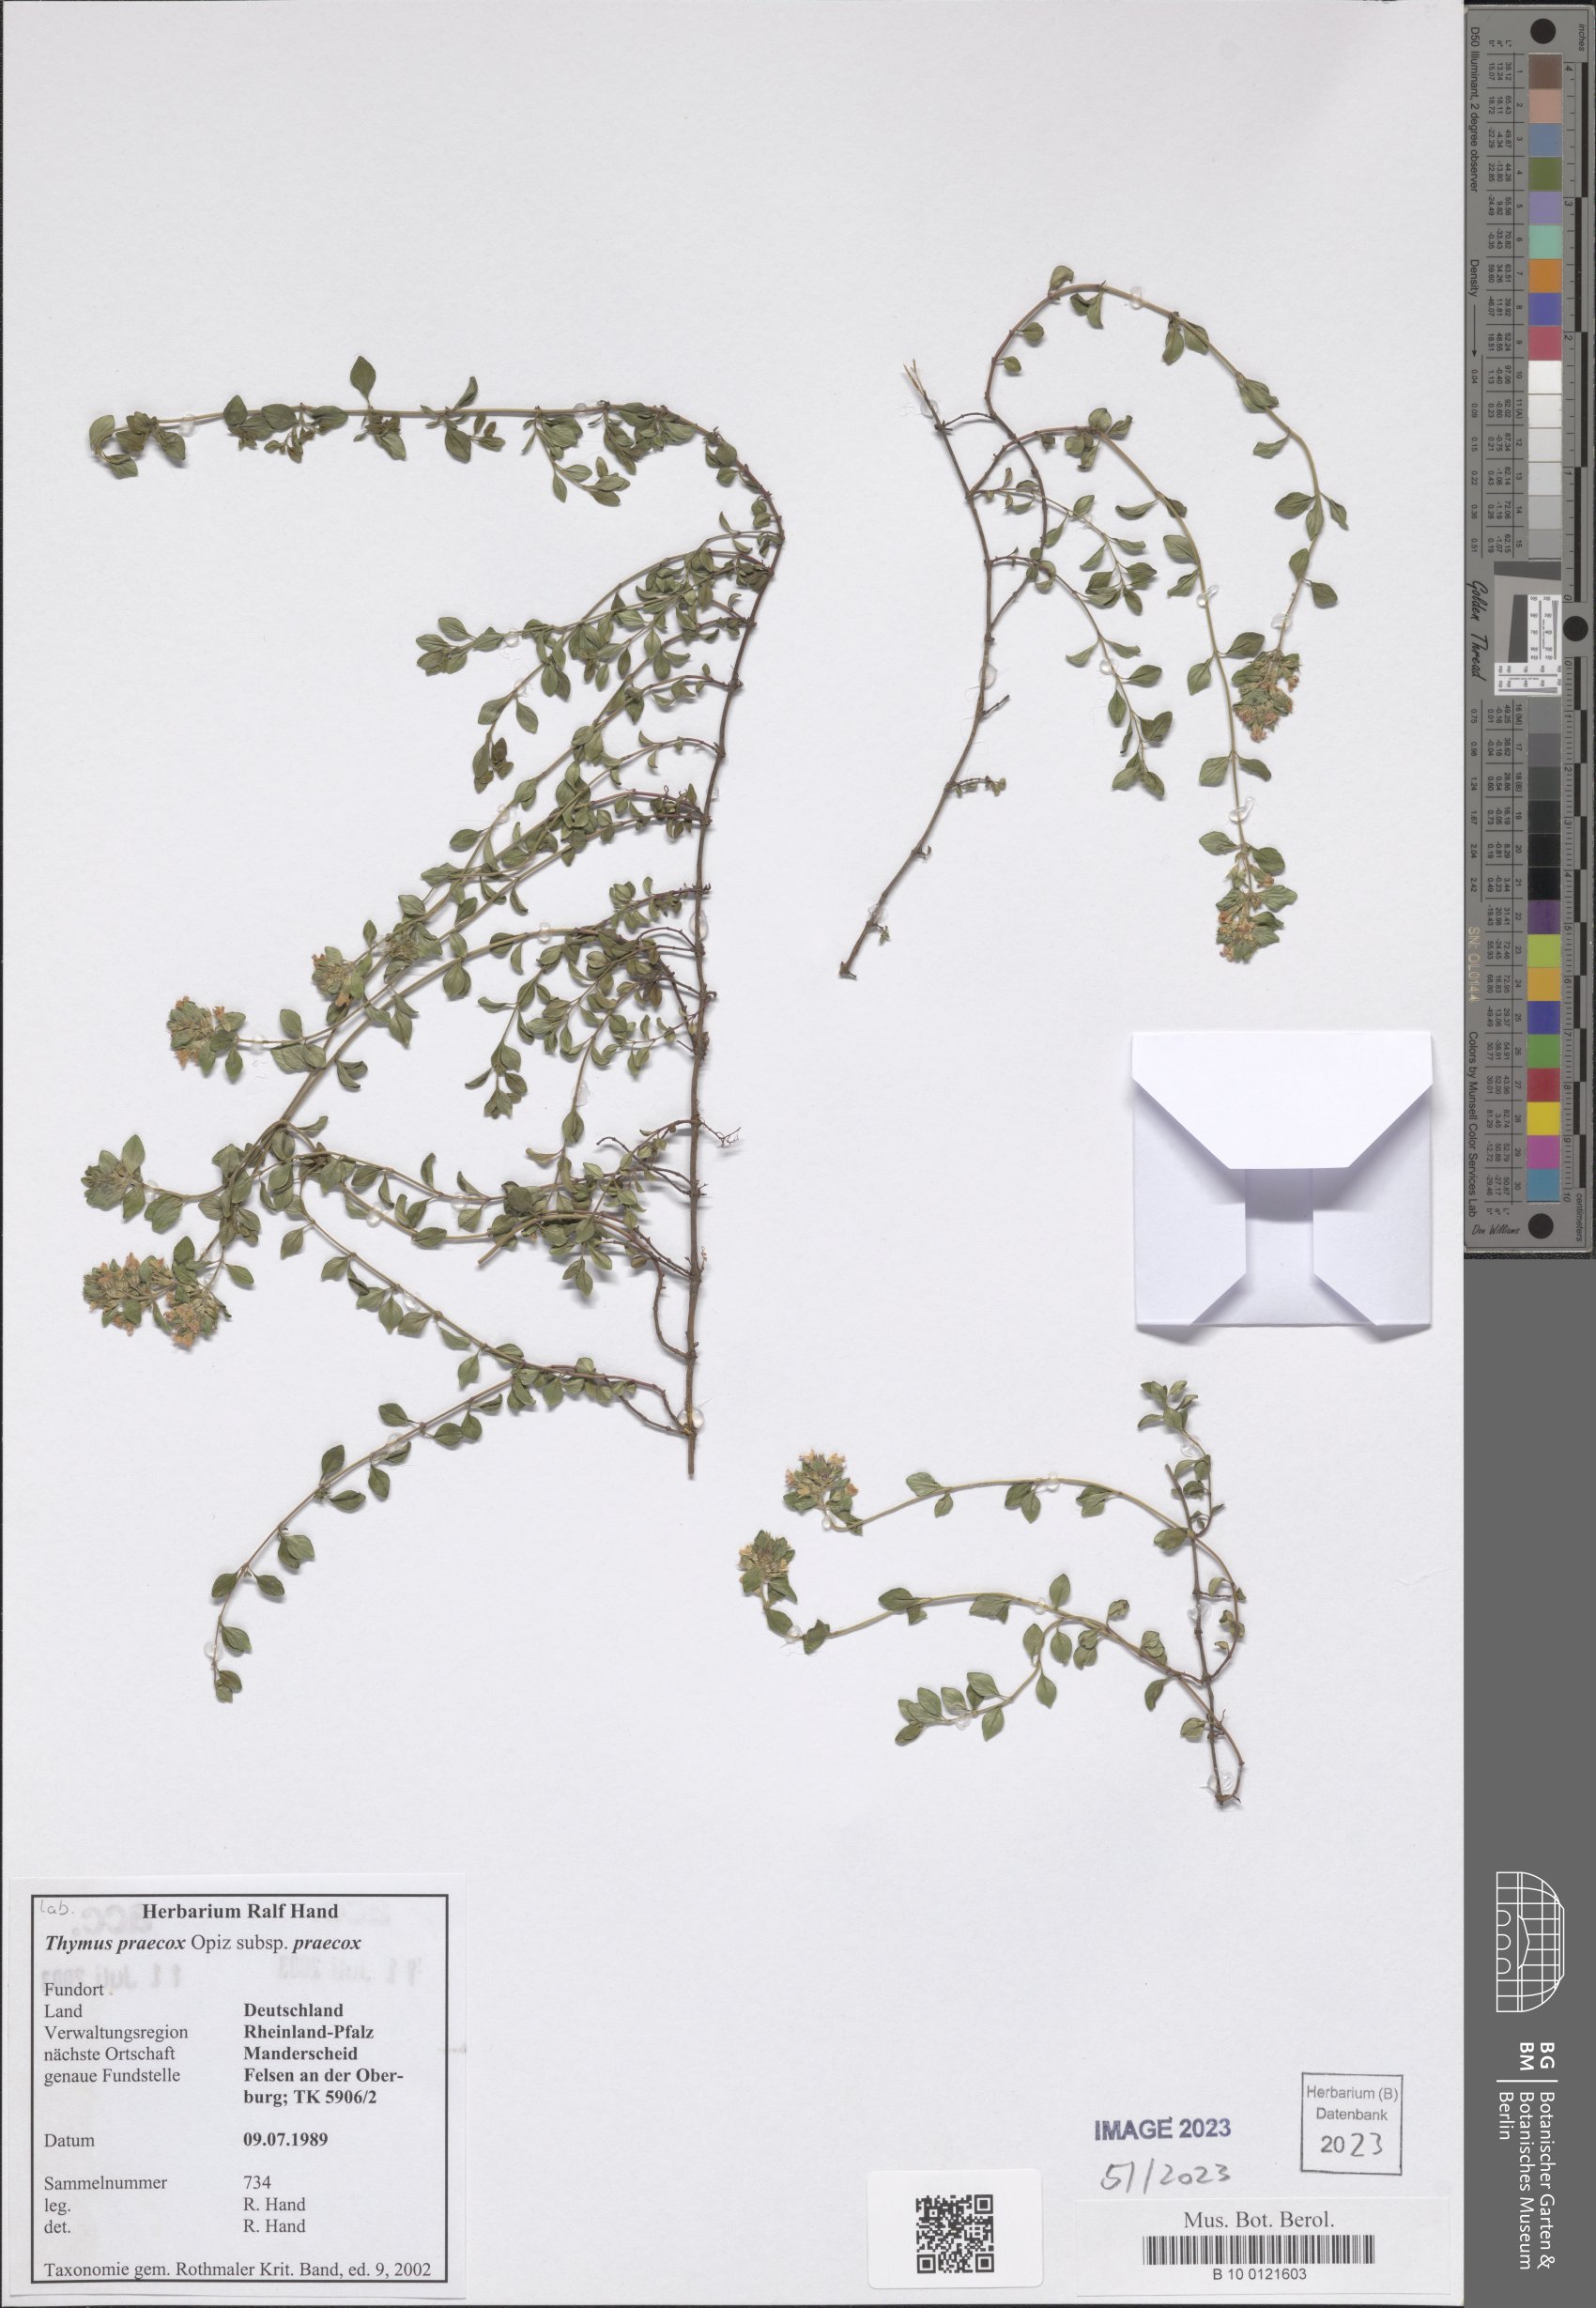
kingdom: Plantae
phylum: Tracheophyta
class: Magnoliopsida
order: Lamiales
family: Lamiaceae
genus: Thymus
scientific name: Thymus praecox
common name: Wild thyme
